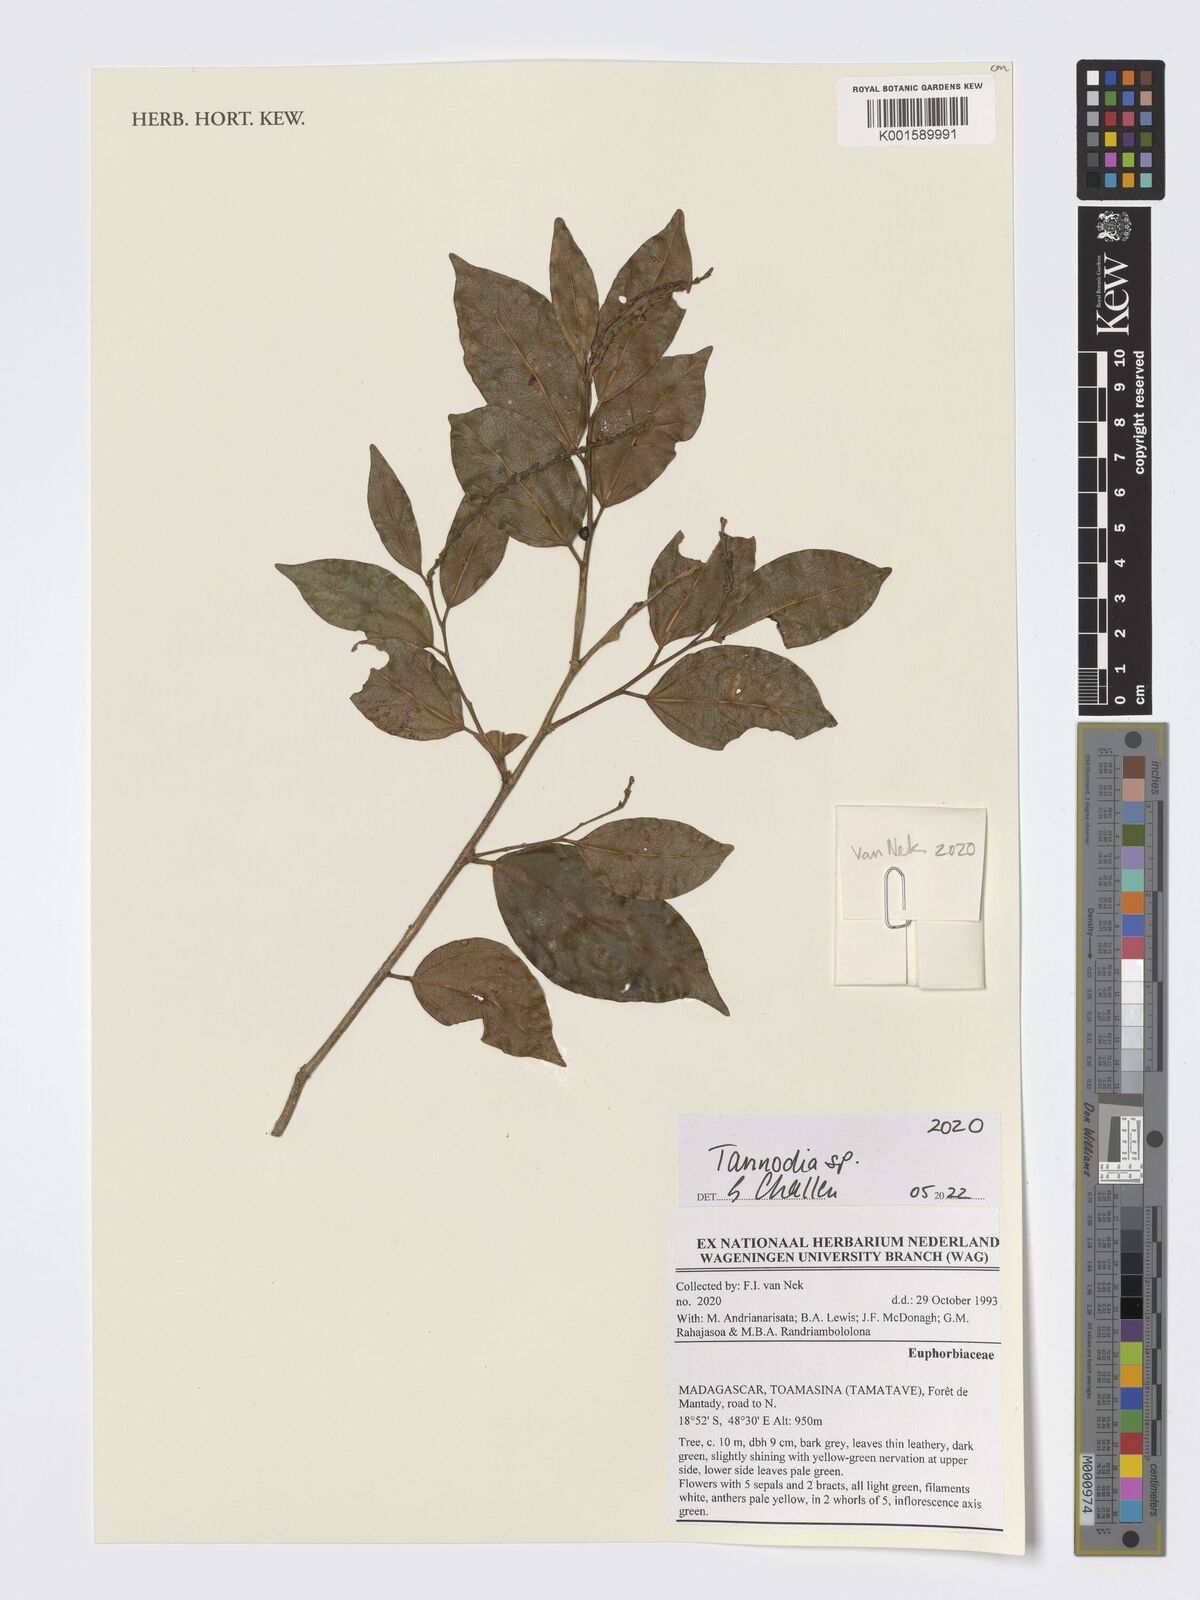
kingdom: Plantae
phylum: Tracheophyta
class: Magnoliopsida
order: Malpighiales
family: Euphorbiaceae
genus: Tannodia
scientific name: Tannodia
